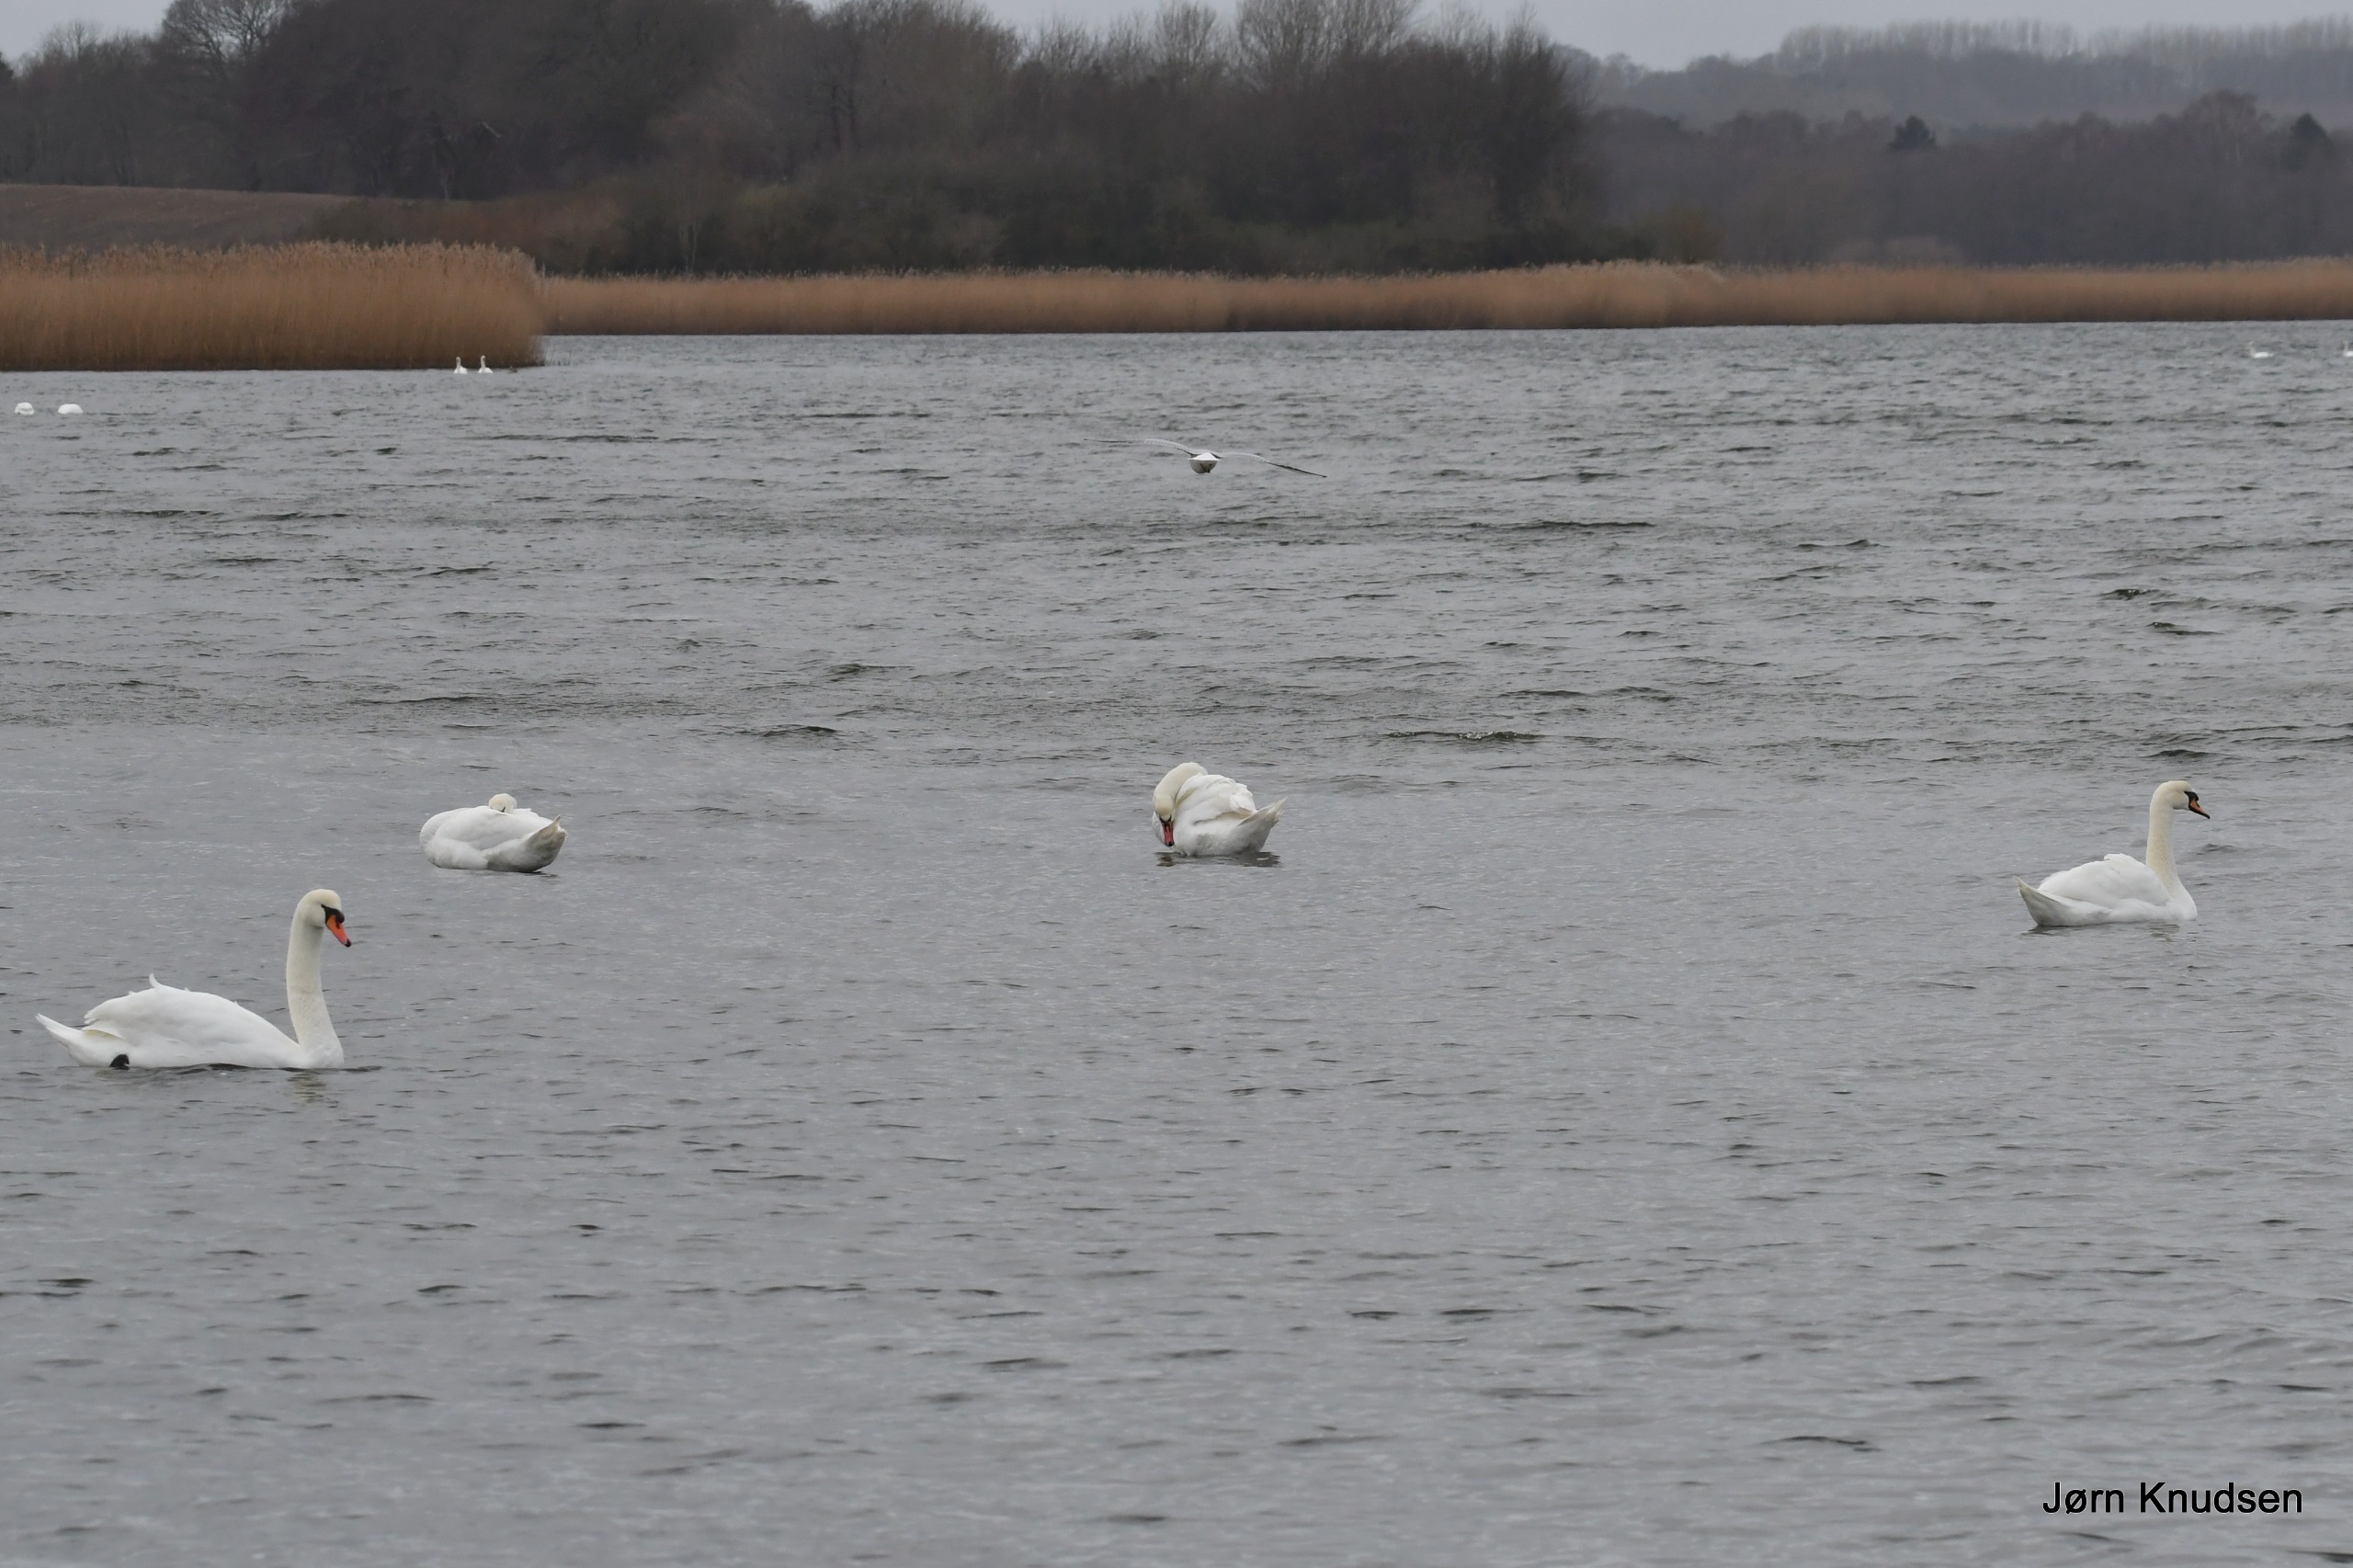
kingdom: Animalia
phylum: Chordata
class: Aves
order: Anseriformes
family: Anatidae
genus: Cygnus
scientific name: Cygnus olor
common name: Knopsvane
